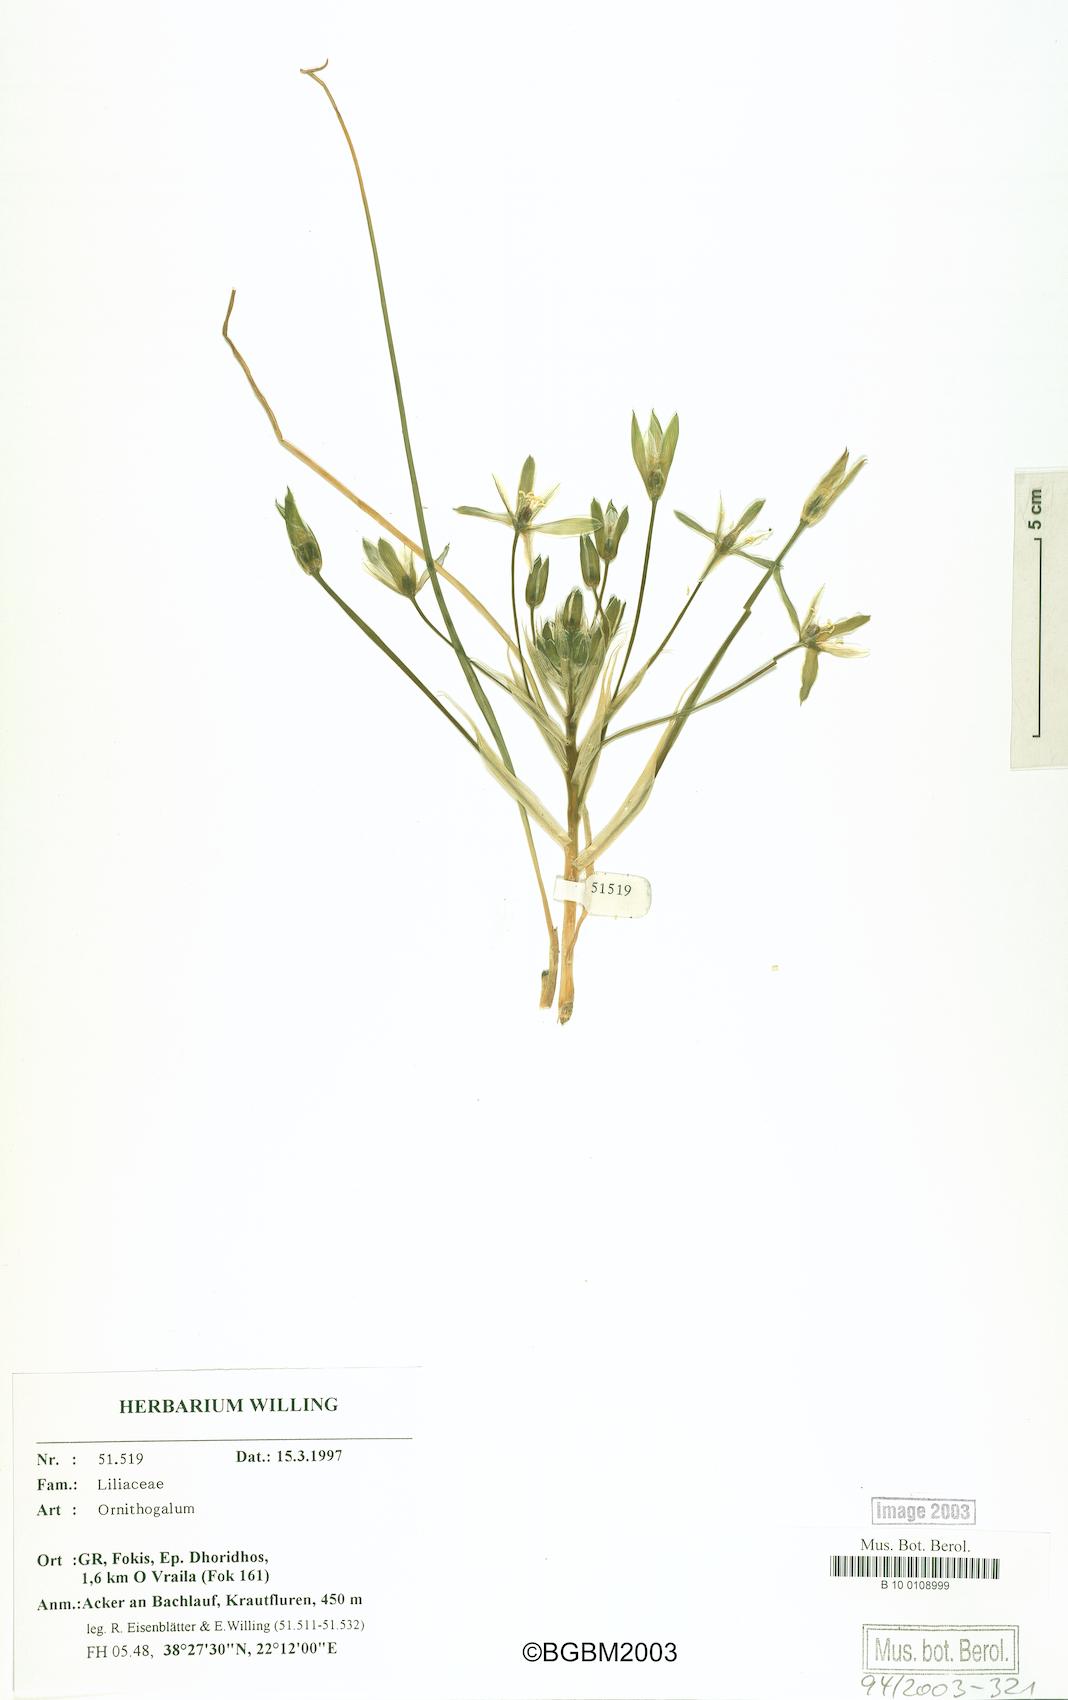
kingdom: Plantae
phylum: Tracheophyta
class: Liliopsida
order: Asparagales
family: Asparagaceae
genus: Ornithogalum
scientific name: Ornithogalum
